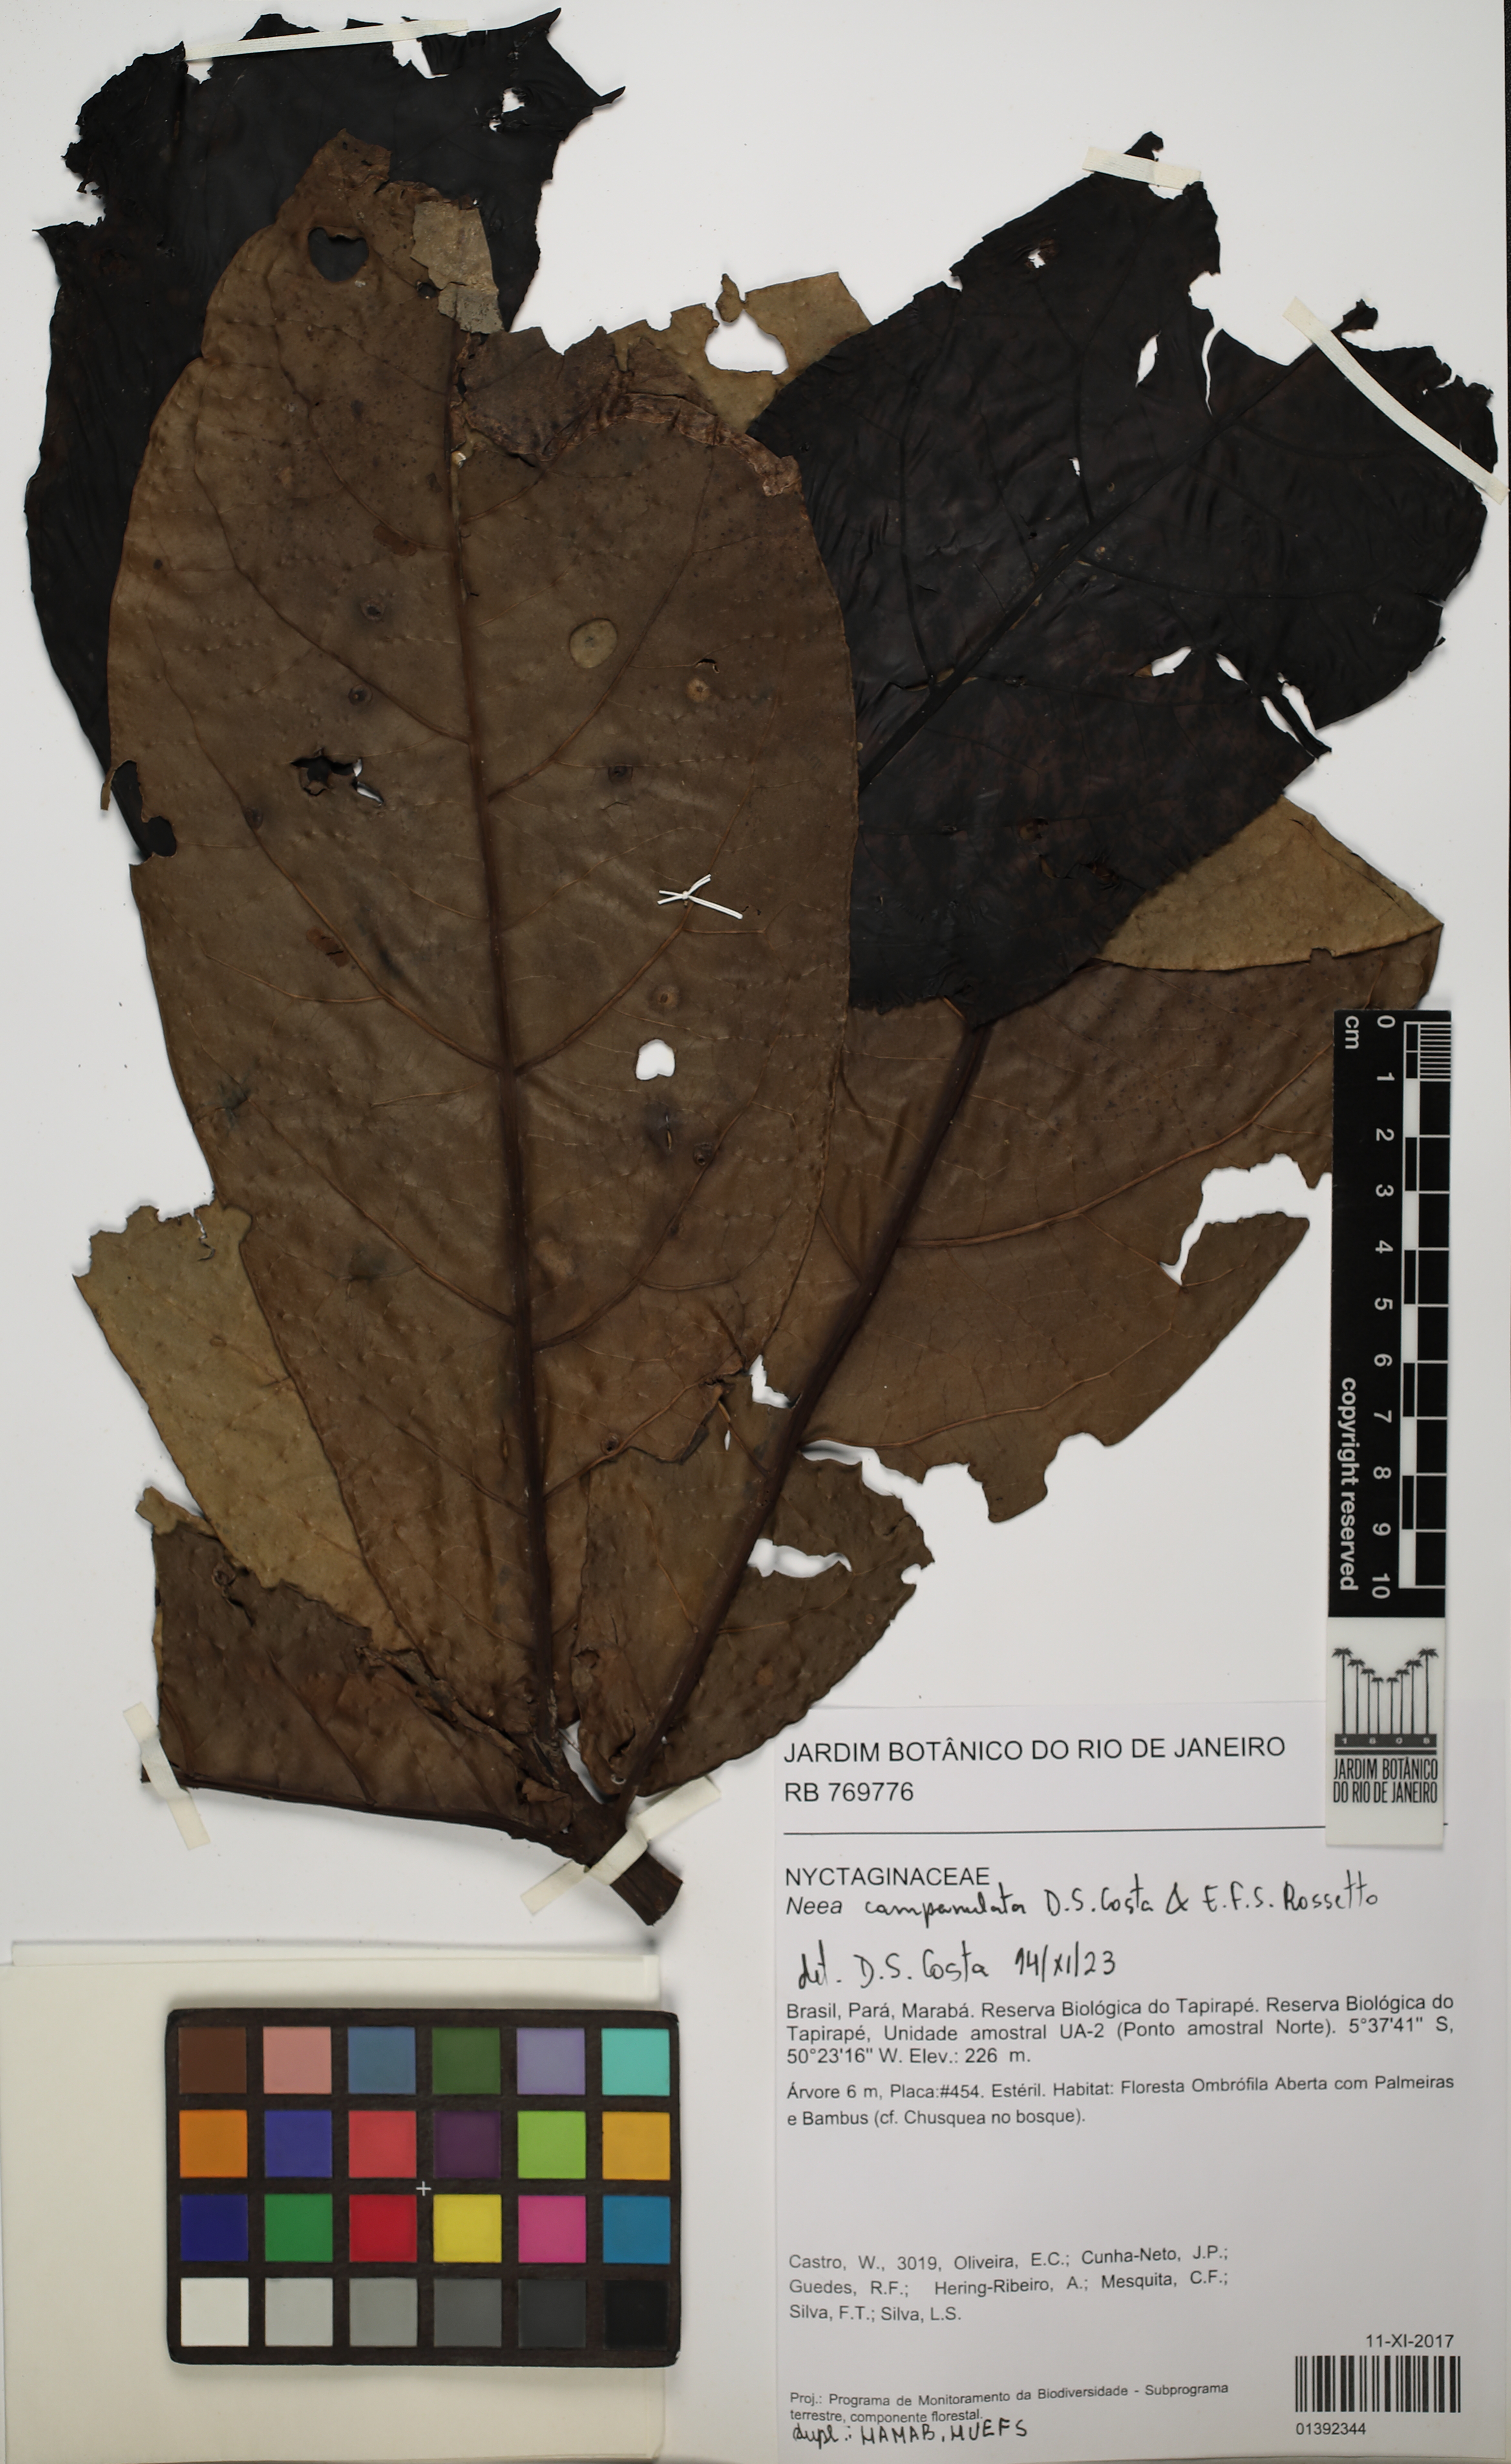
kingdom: Plantae
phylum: Tracheophyta
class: Magnoliopsida
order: Caryophyllales
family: Nyctaginaceae
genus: Neea
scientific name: Neea campanulata
